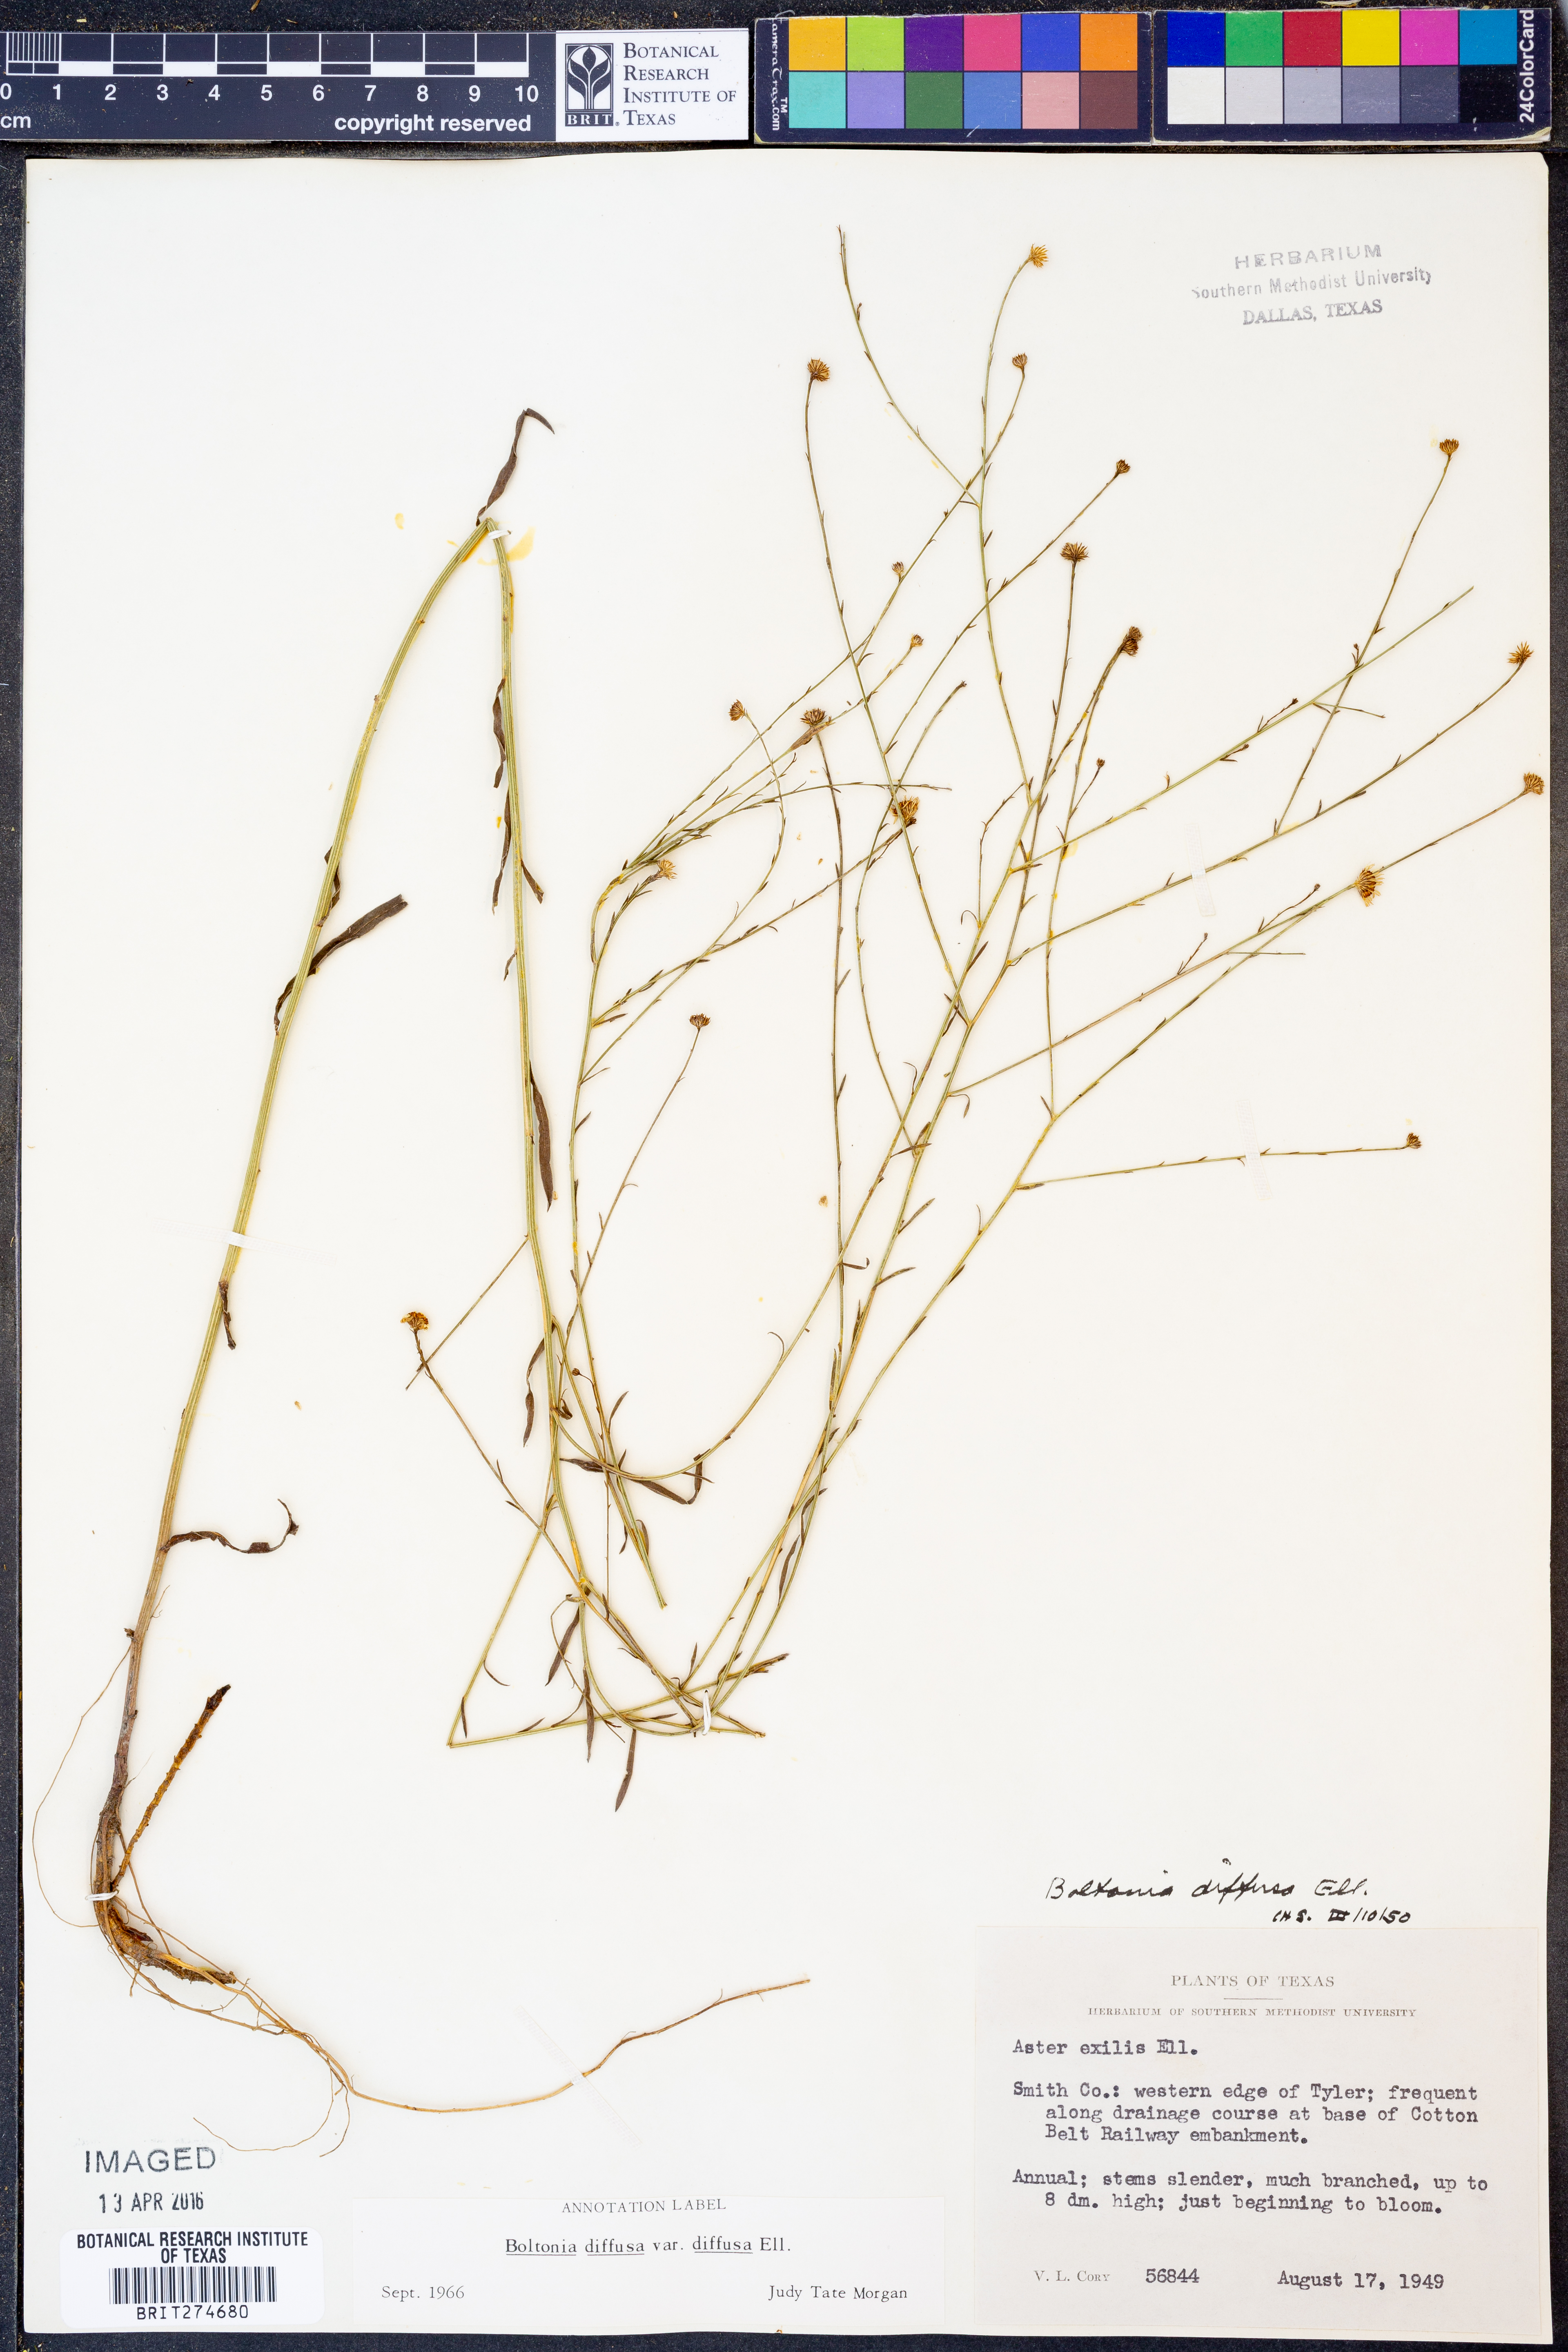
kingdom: Plantae
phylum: Tracheophyta
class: Magnoliopsida
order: Asterales
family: Asteraceae
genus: Boltonia
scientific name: Boltonia diffusa
